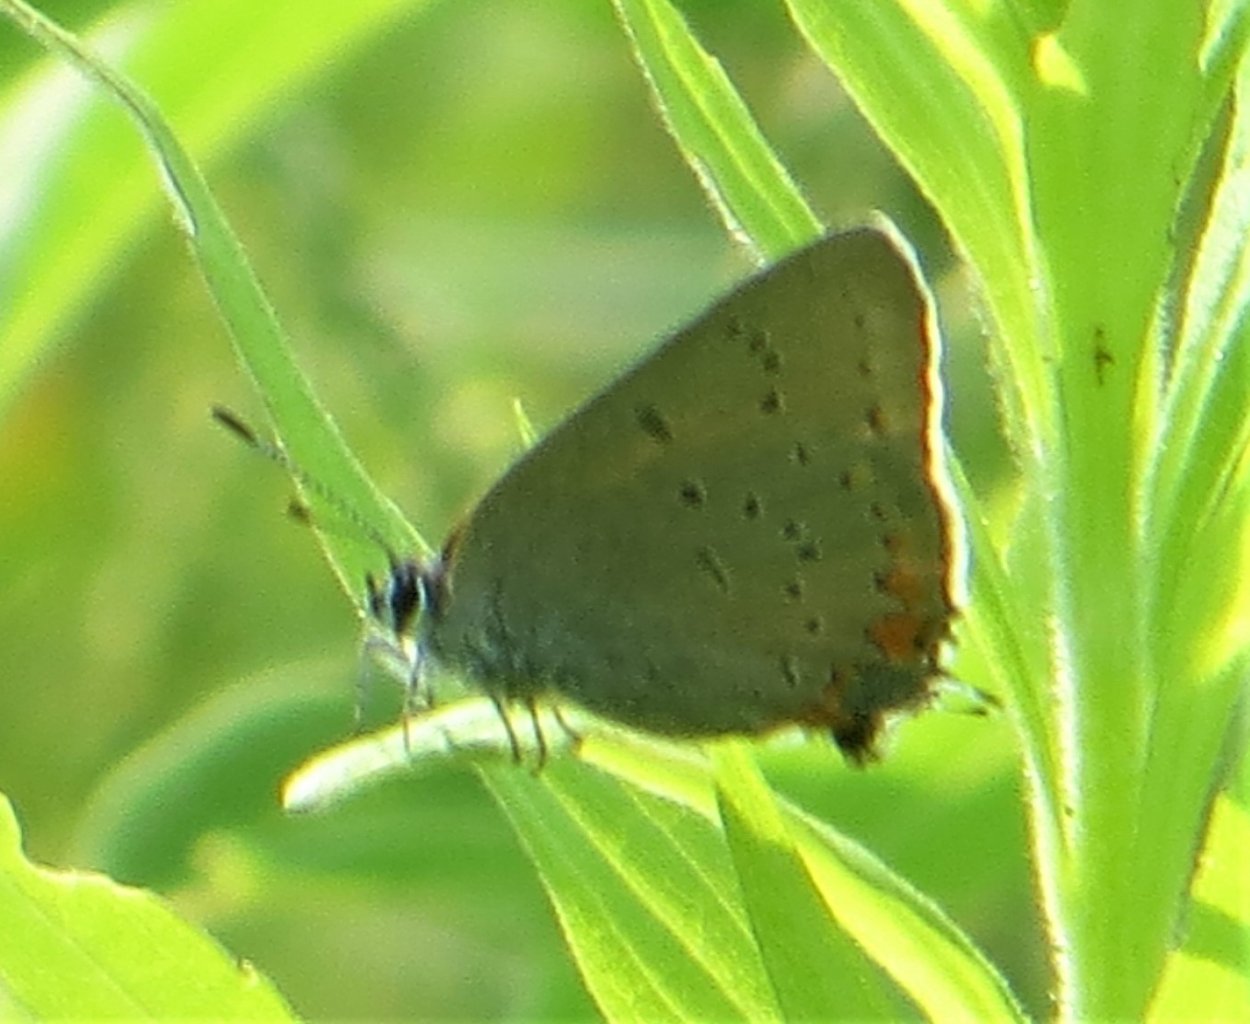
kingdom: Animalia
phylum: Arthropoda
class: Insecta
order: Lepidoptera
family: Lycaenidae
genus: Strymon
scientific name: Strymon acadica
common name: Acadian Hairstreak
